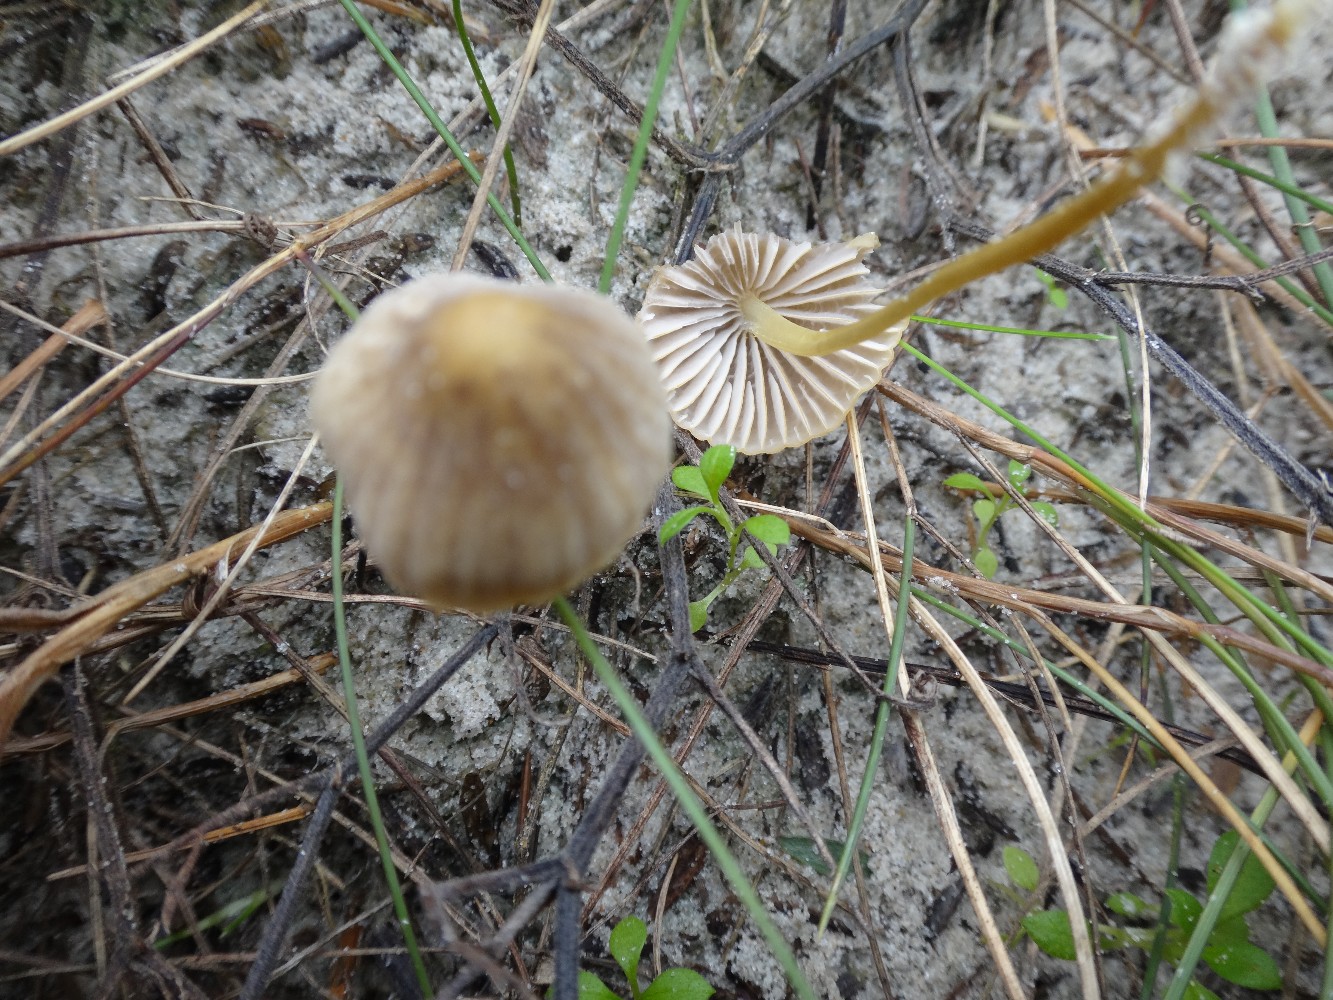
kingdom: Fungi
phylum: Basidiomycota
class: Agaricomycetes
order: Agaricales
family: Mycenaceae
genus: Mycena
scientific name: Mycena olivaceomarginata
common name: brunægget huesvamp
